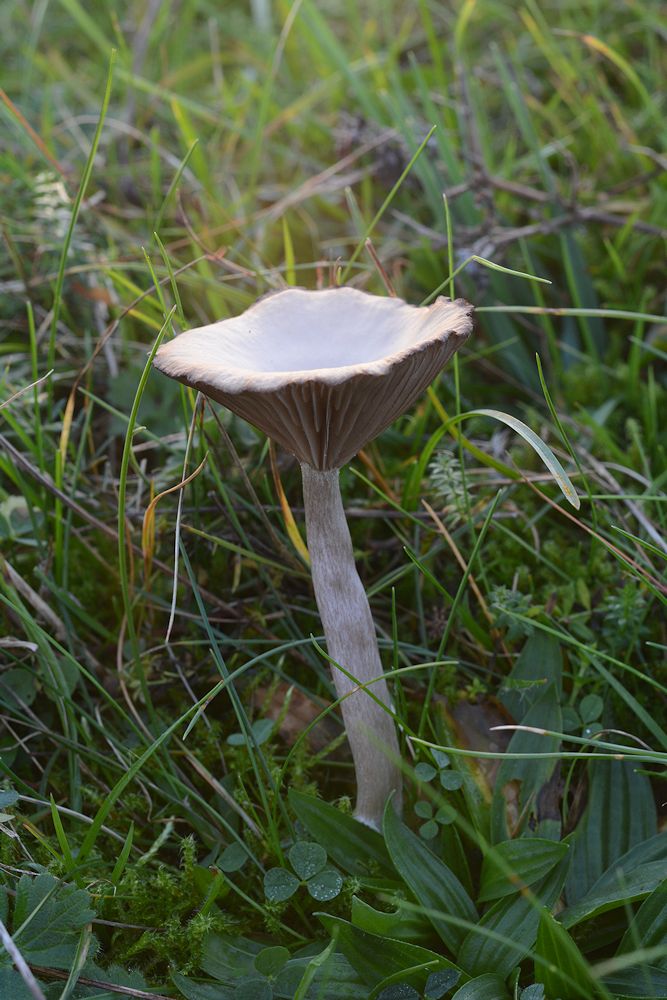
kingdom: Fungi
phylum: Basidiomycota
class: Agaricomycetes
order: Agaricales
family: Pseudoclitocybaceae
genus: Pseudoclitocybe
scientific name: Pseudoclitocybe cyathiformis
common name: almindelig bægertragthat
